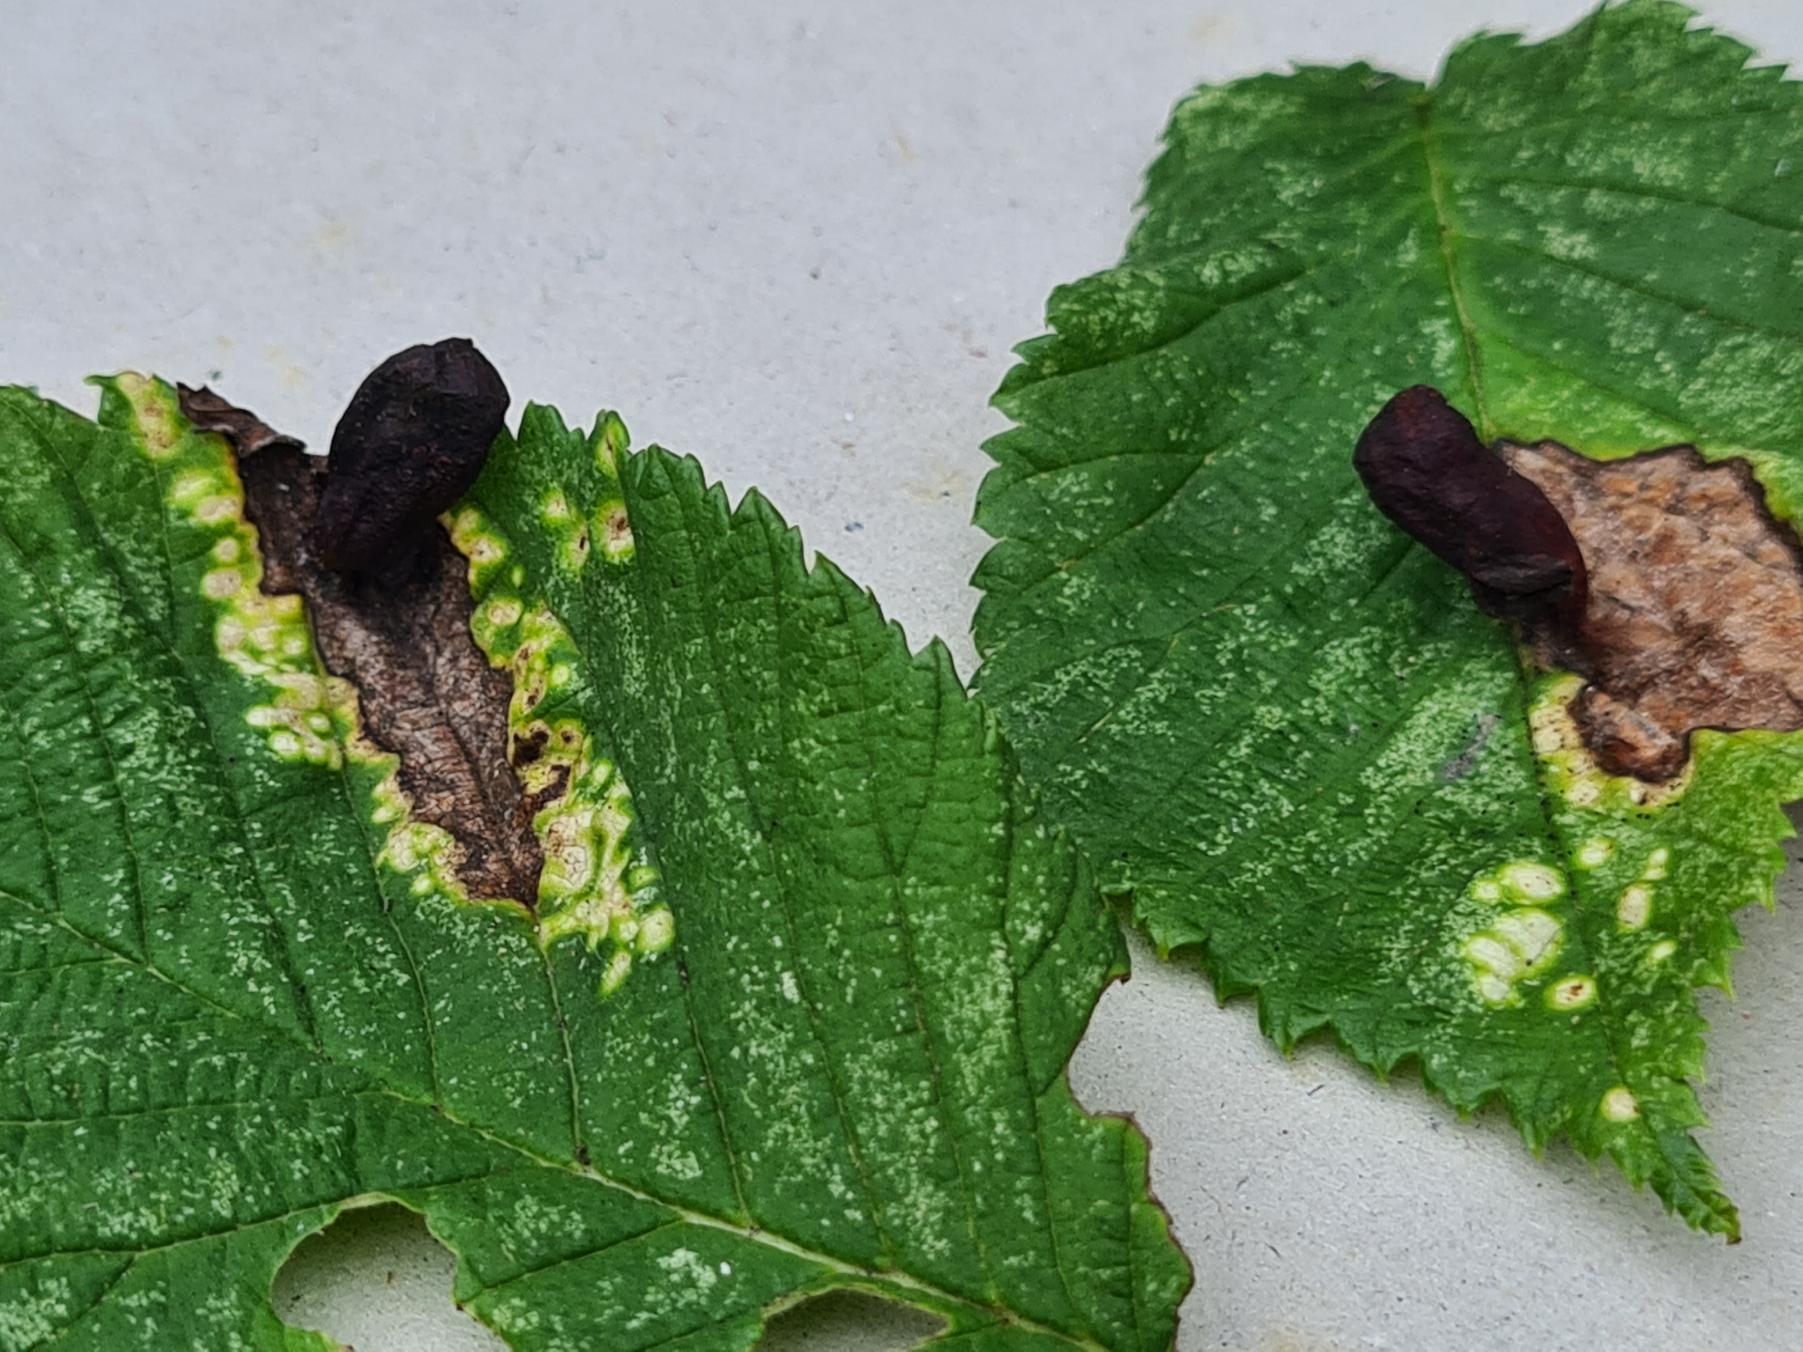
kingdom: Animalia
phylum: Arthropoda
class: Insecta
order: Hemiptera
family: Aphididae
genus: Tetraneura
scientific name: Tetraneura ulmi
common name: Elmegallelus
